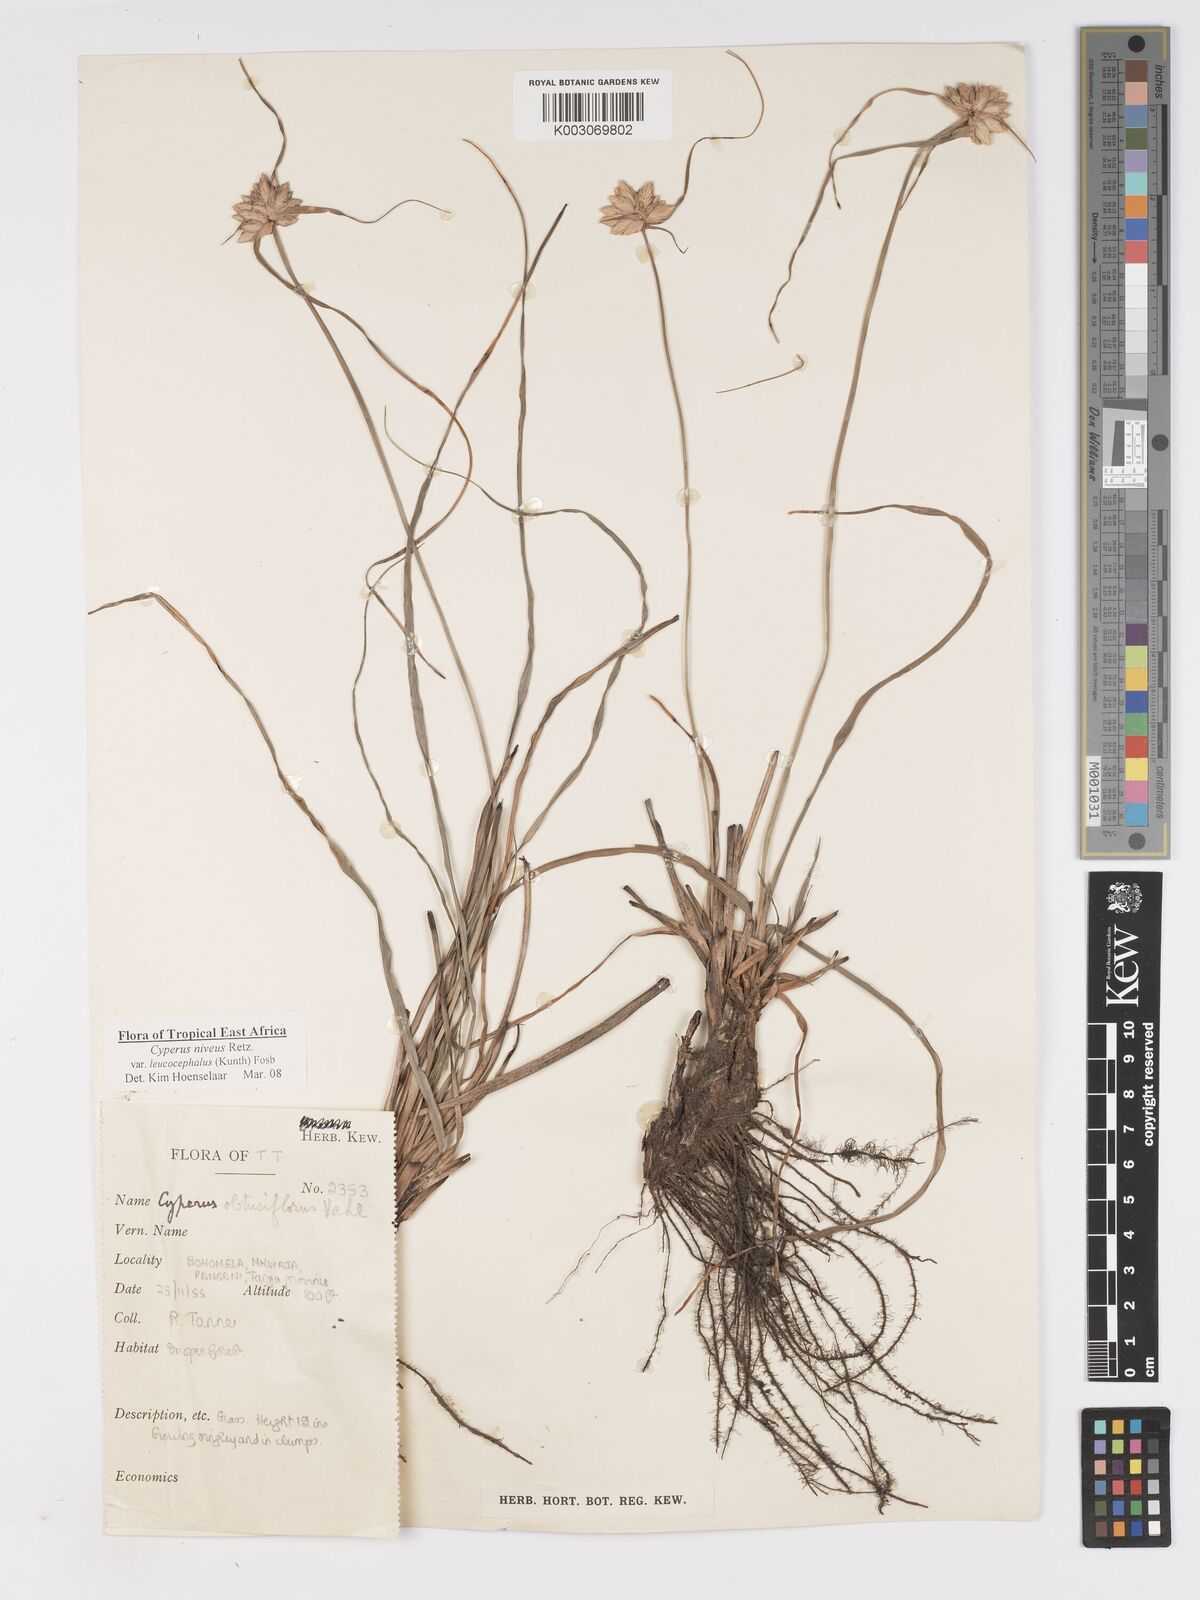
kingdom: Plantae
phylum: Tracheophyta
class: Liliopsida
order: Poales
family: Cyperaceae
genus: Cyperus
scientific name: Cyperus niveus
